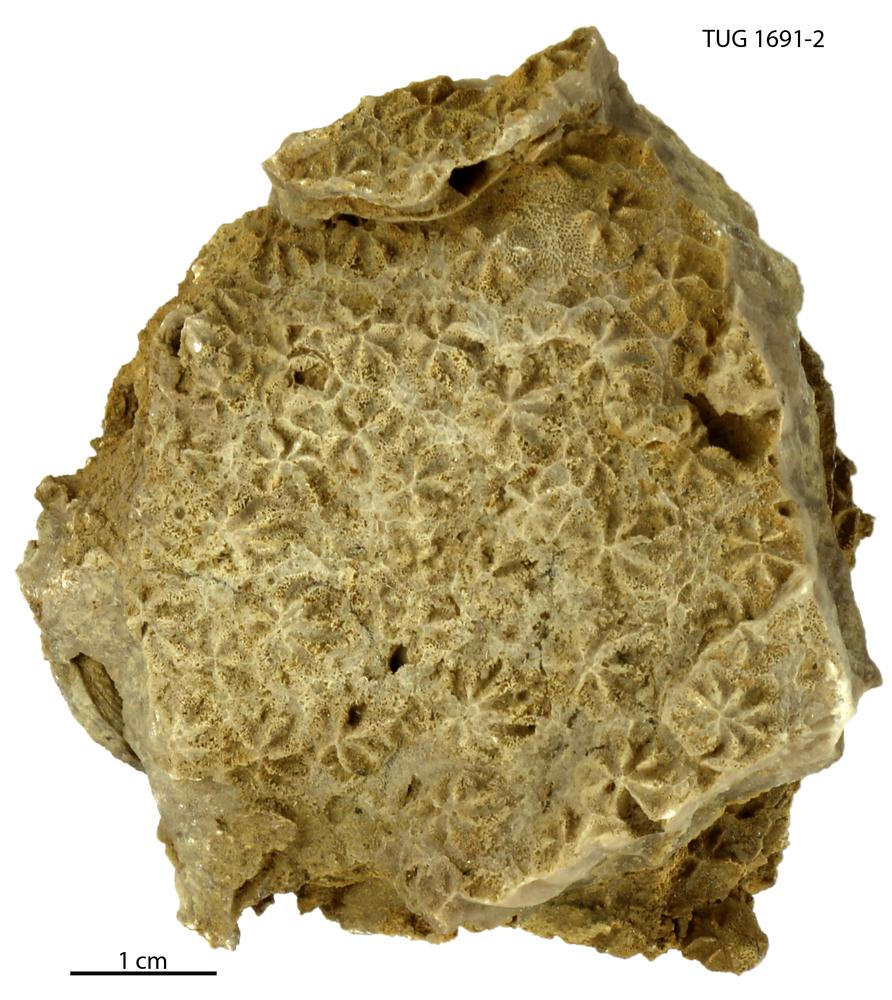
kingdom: Animalia
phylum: Bryozoa
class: Stenolaemata
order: Cystoporida
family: Constellariidae
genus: Revalopora
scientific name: Revalopora revalensis
